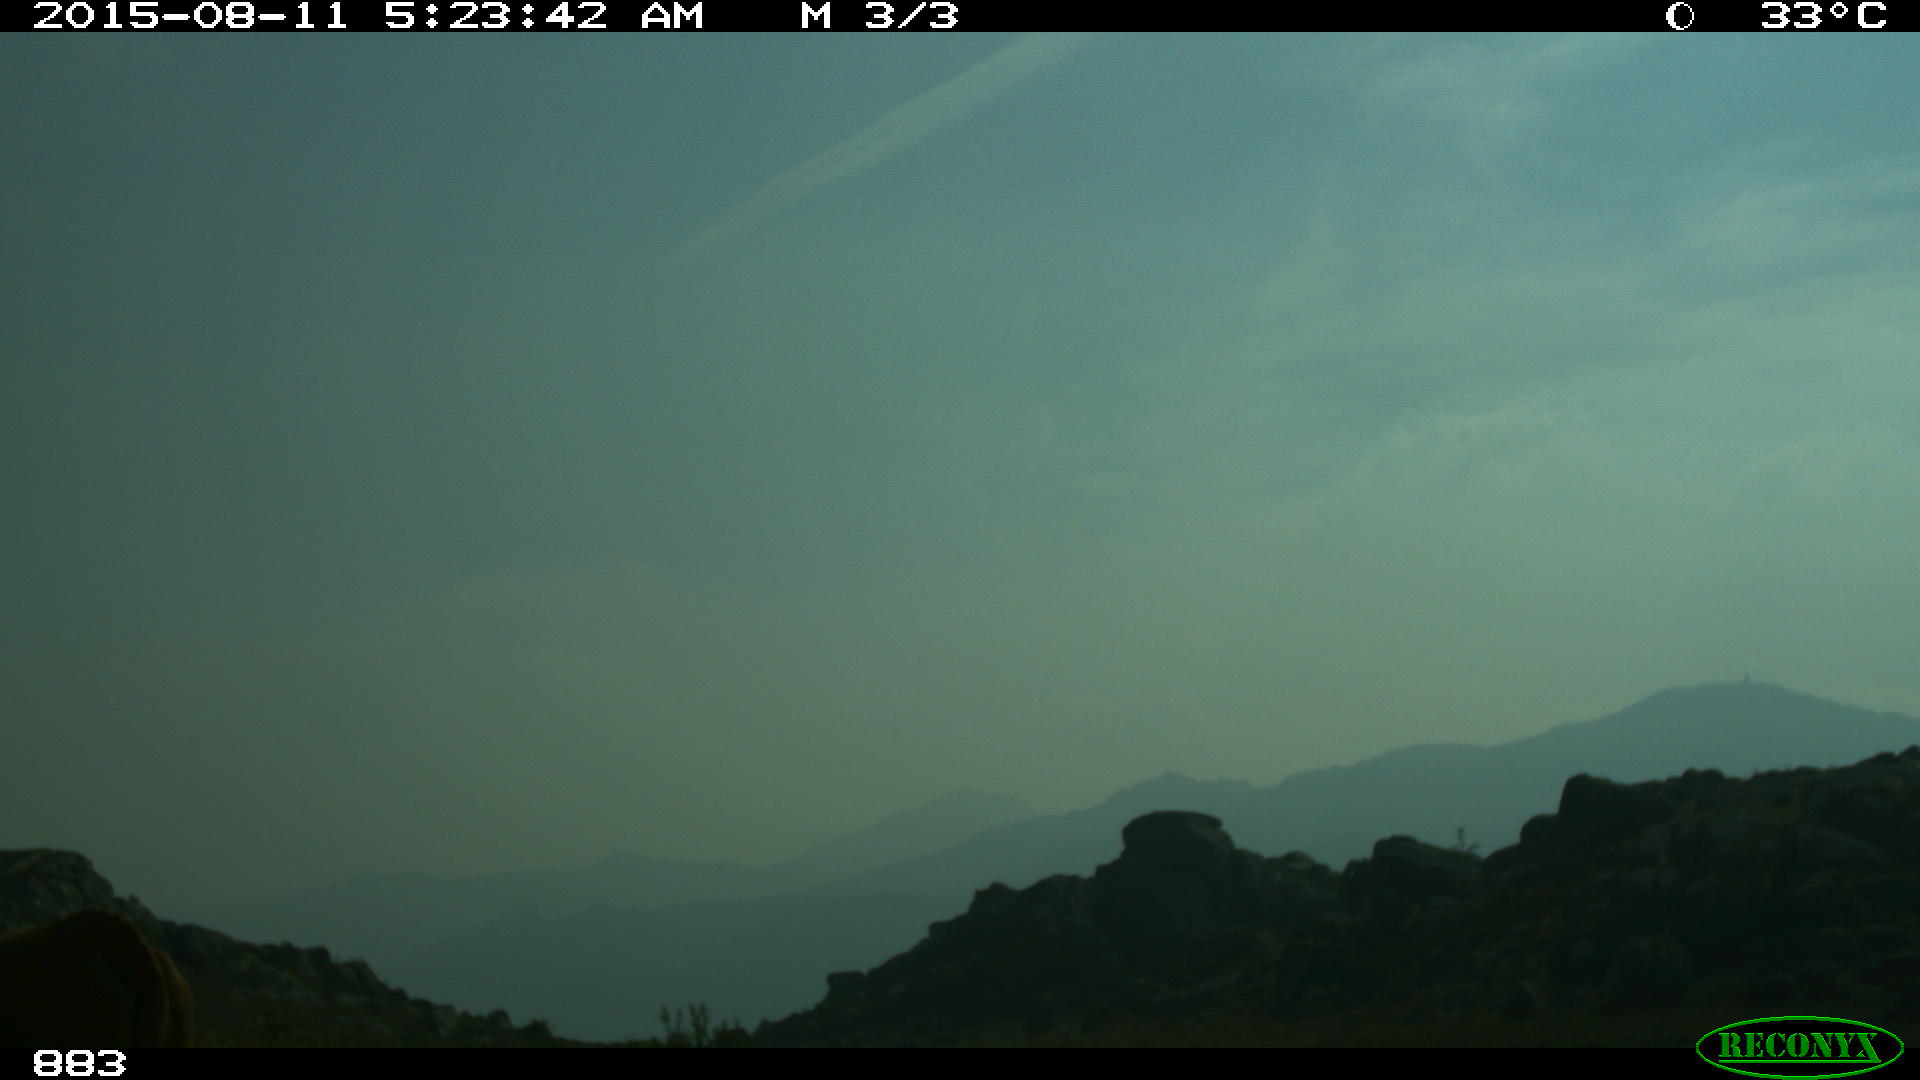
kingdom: Animalia
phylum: Chordata
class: Mammalia
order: Artiodactyla
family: Bovidae
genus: Bos
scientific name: Bos taurus
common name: Domesticated cattle
